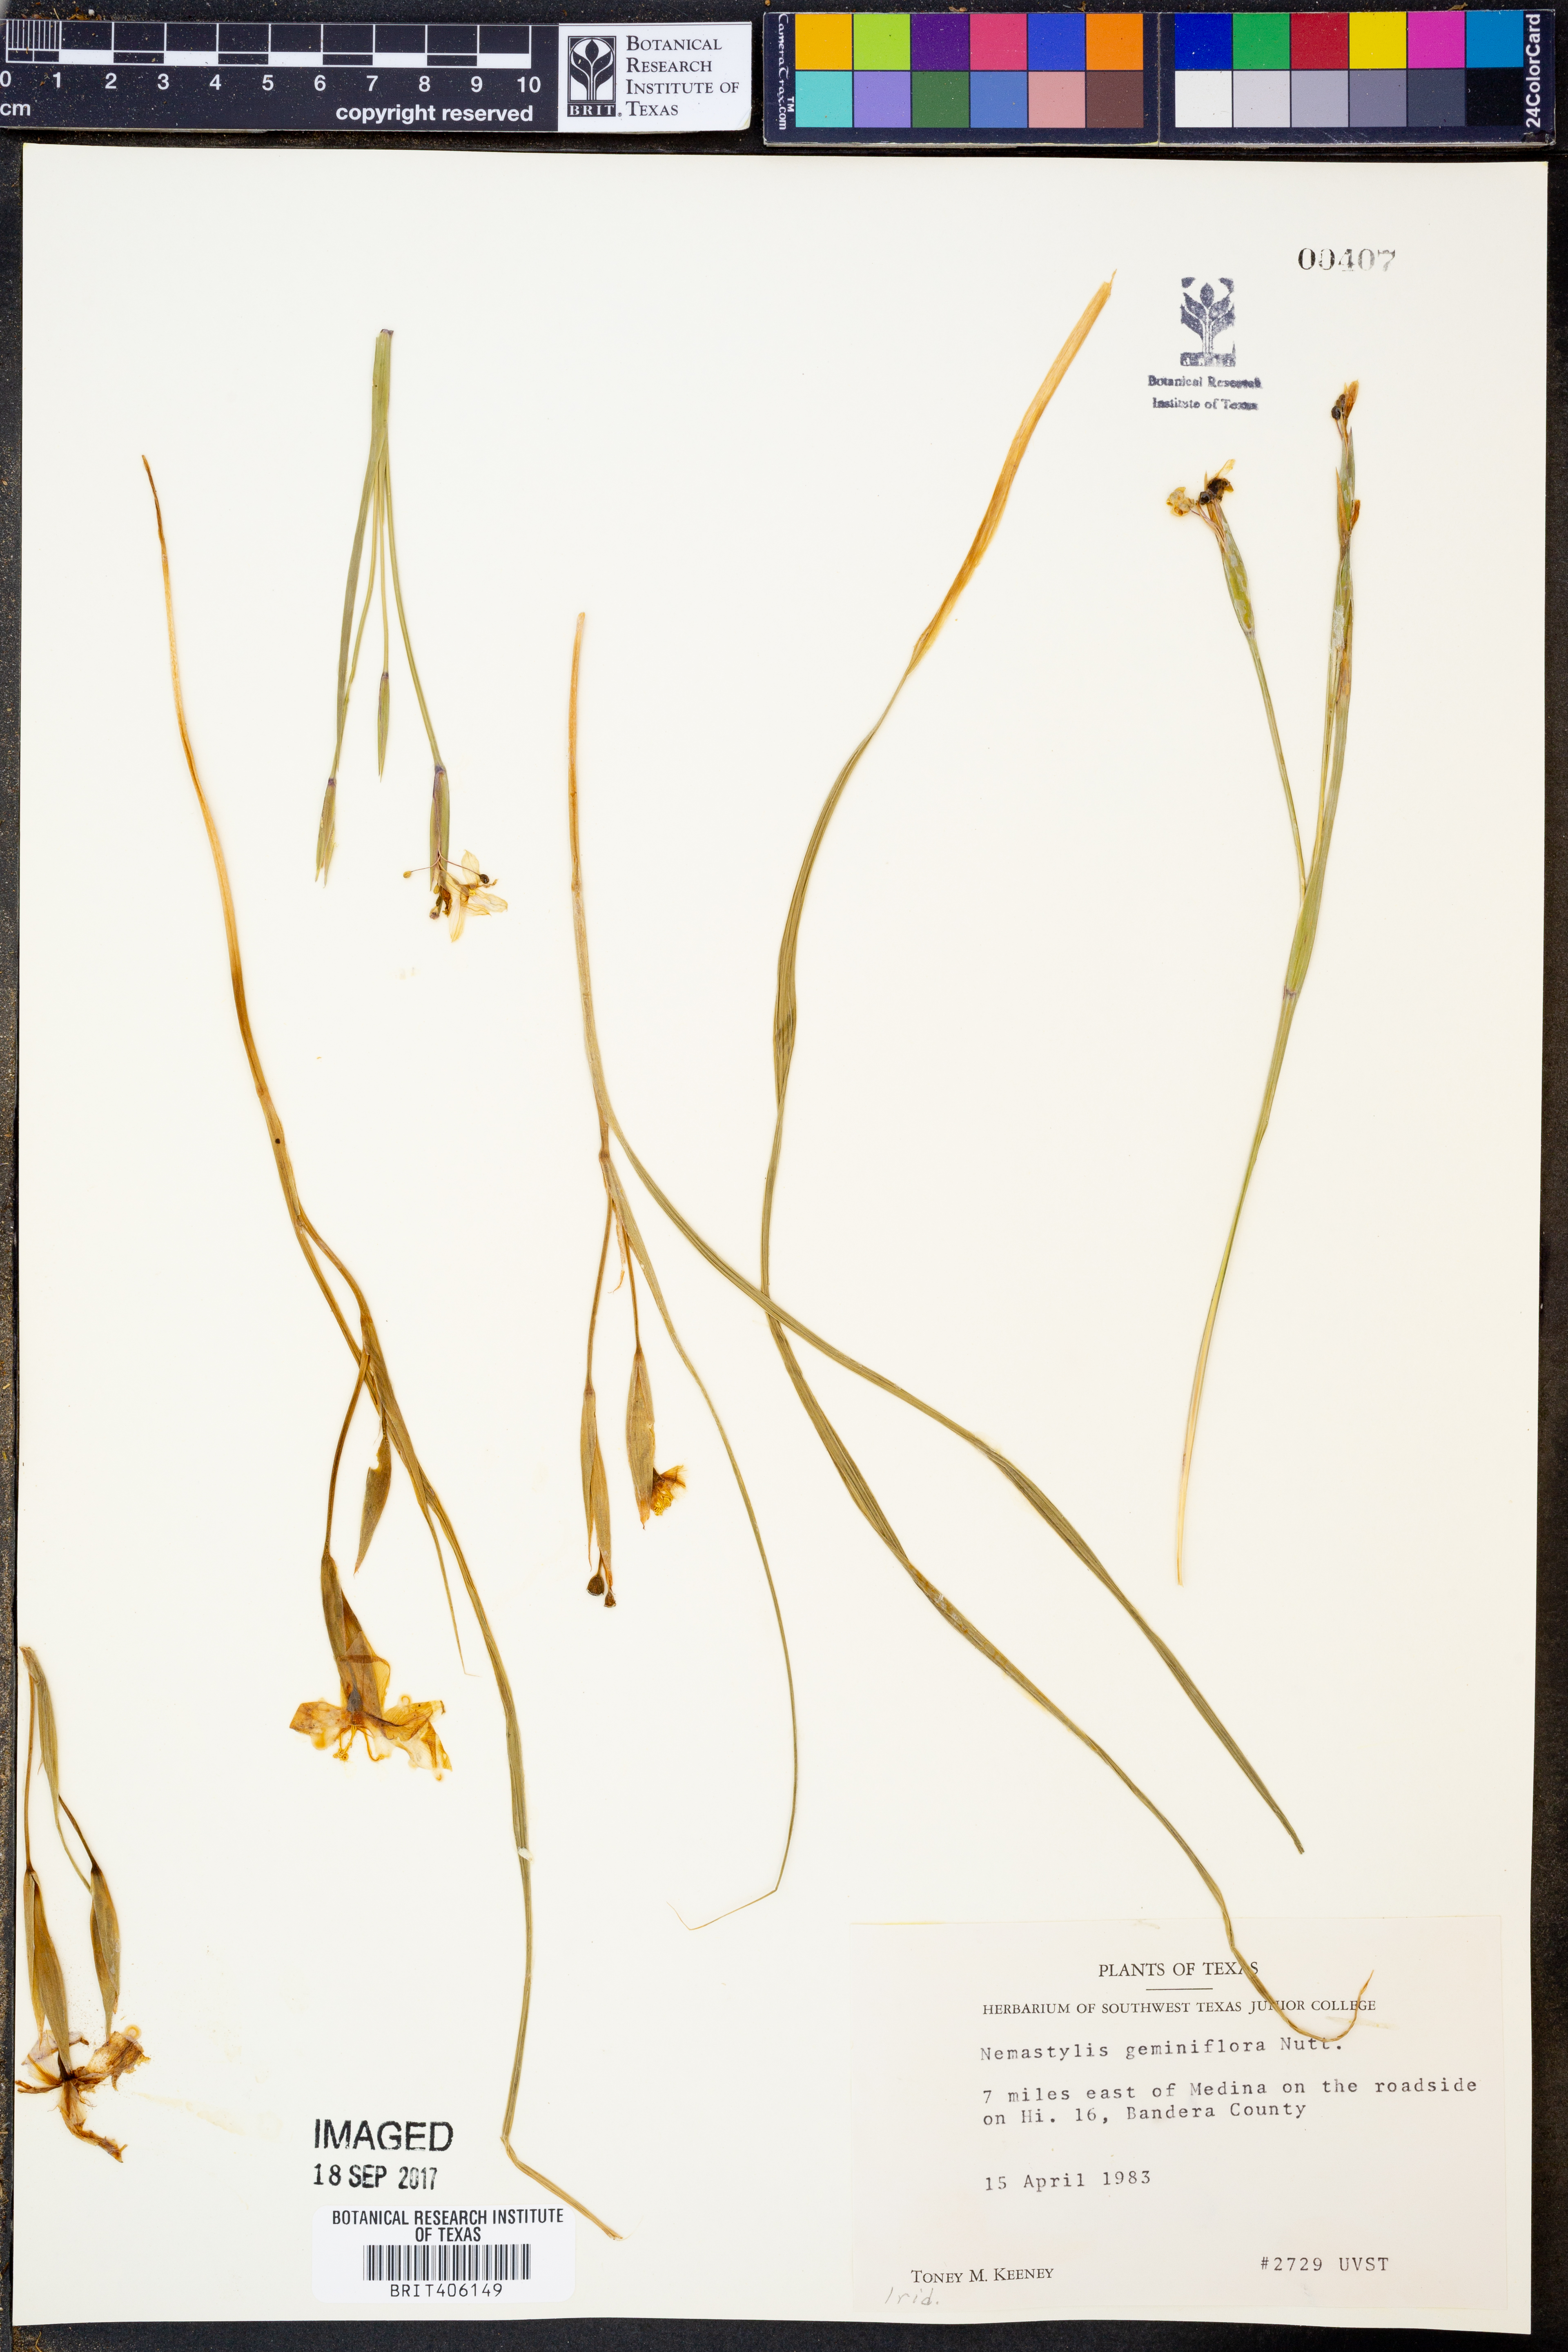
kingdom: Plantae
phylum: Tracheophyta
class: Liliopsida
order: Asparagales
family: Iridaceae
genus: Nemastylis
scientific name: Nemastylis geminiflora
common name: Prairie celestial
